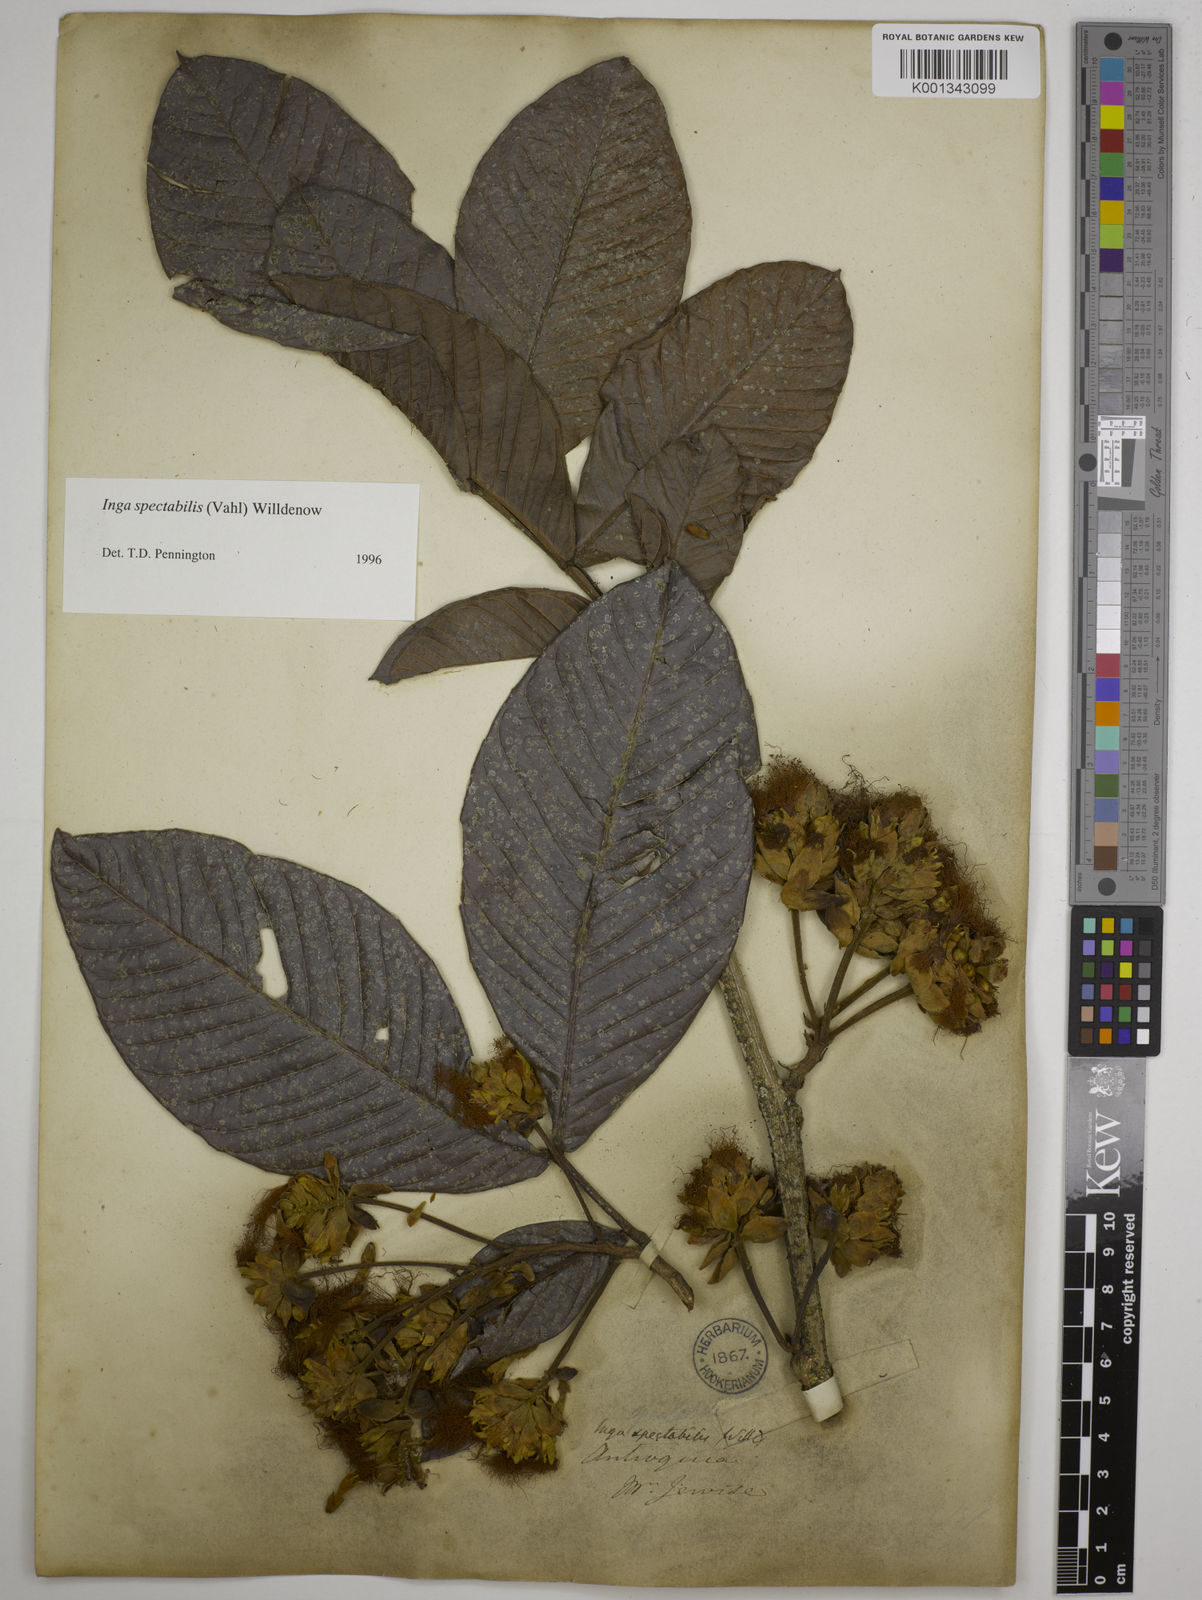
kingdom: Plantae
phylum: Tracheophyta
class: Magnoliopsida
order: Fabales
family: Fabaceae
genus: Inga
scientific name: Inga spectabilis
